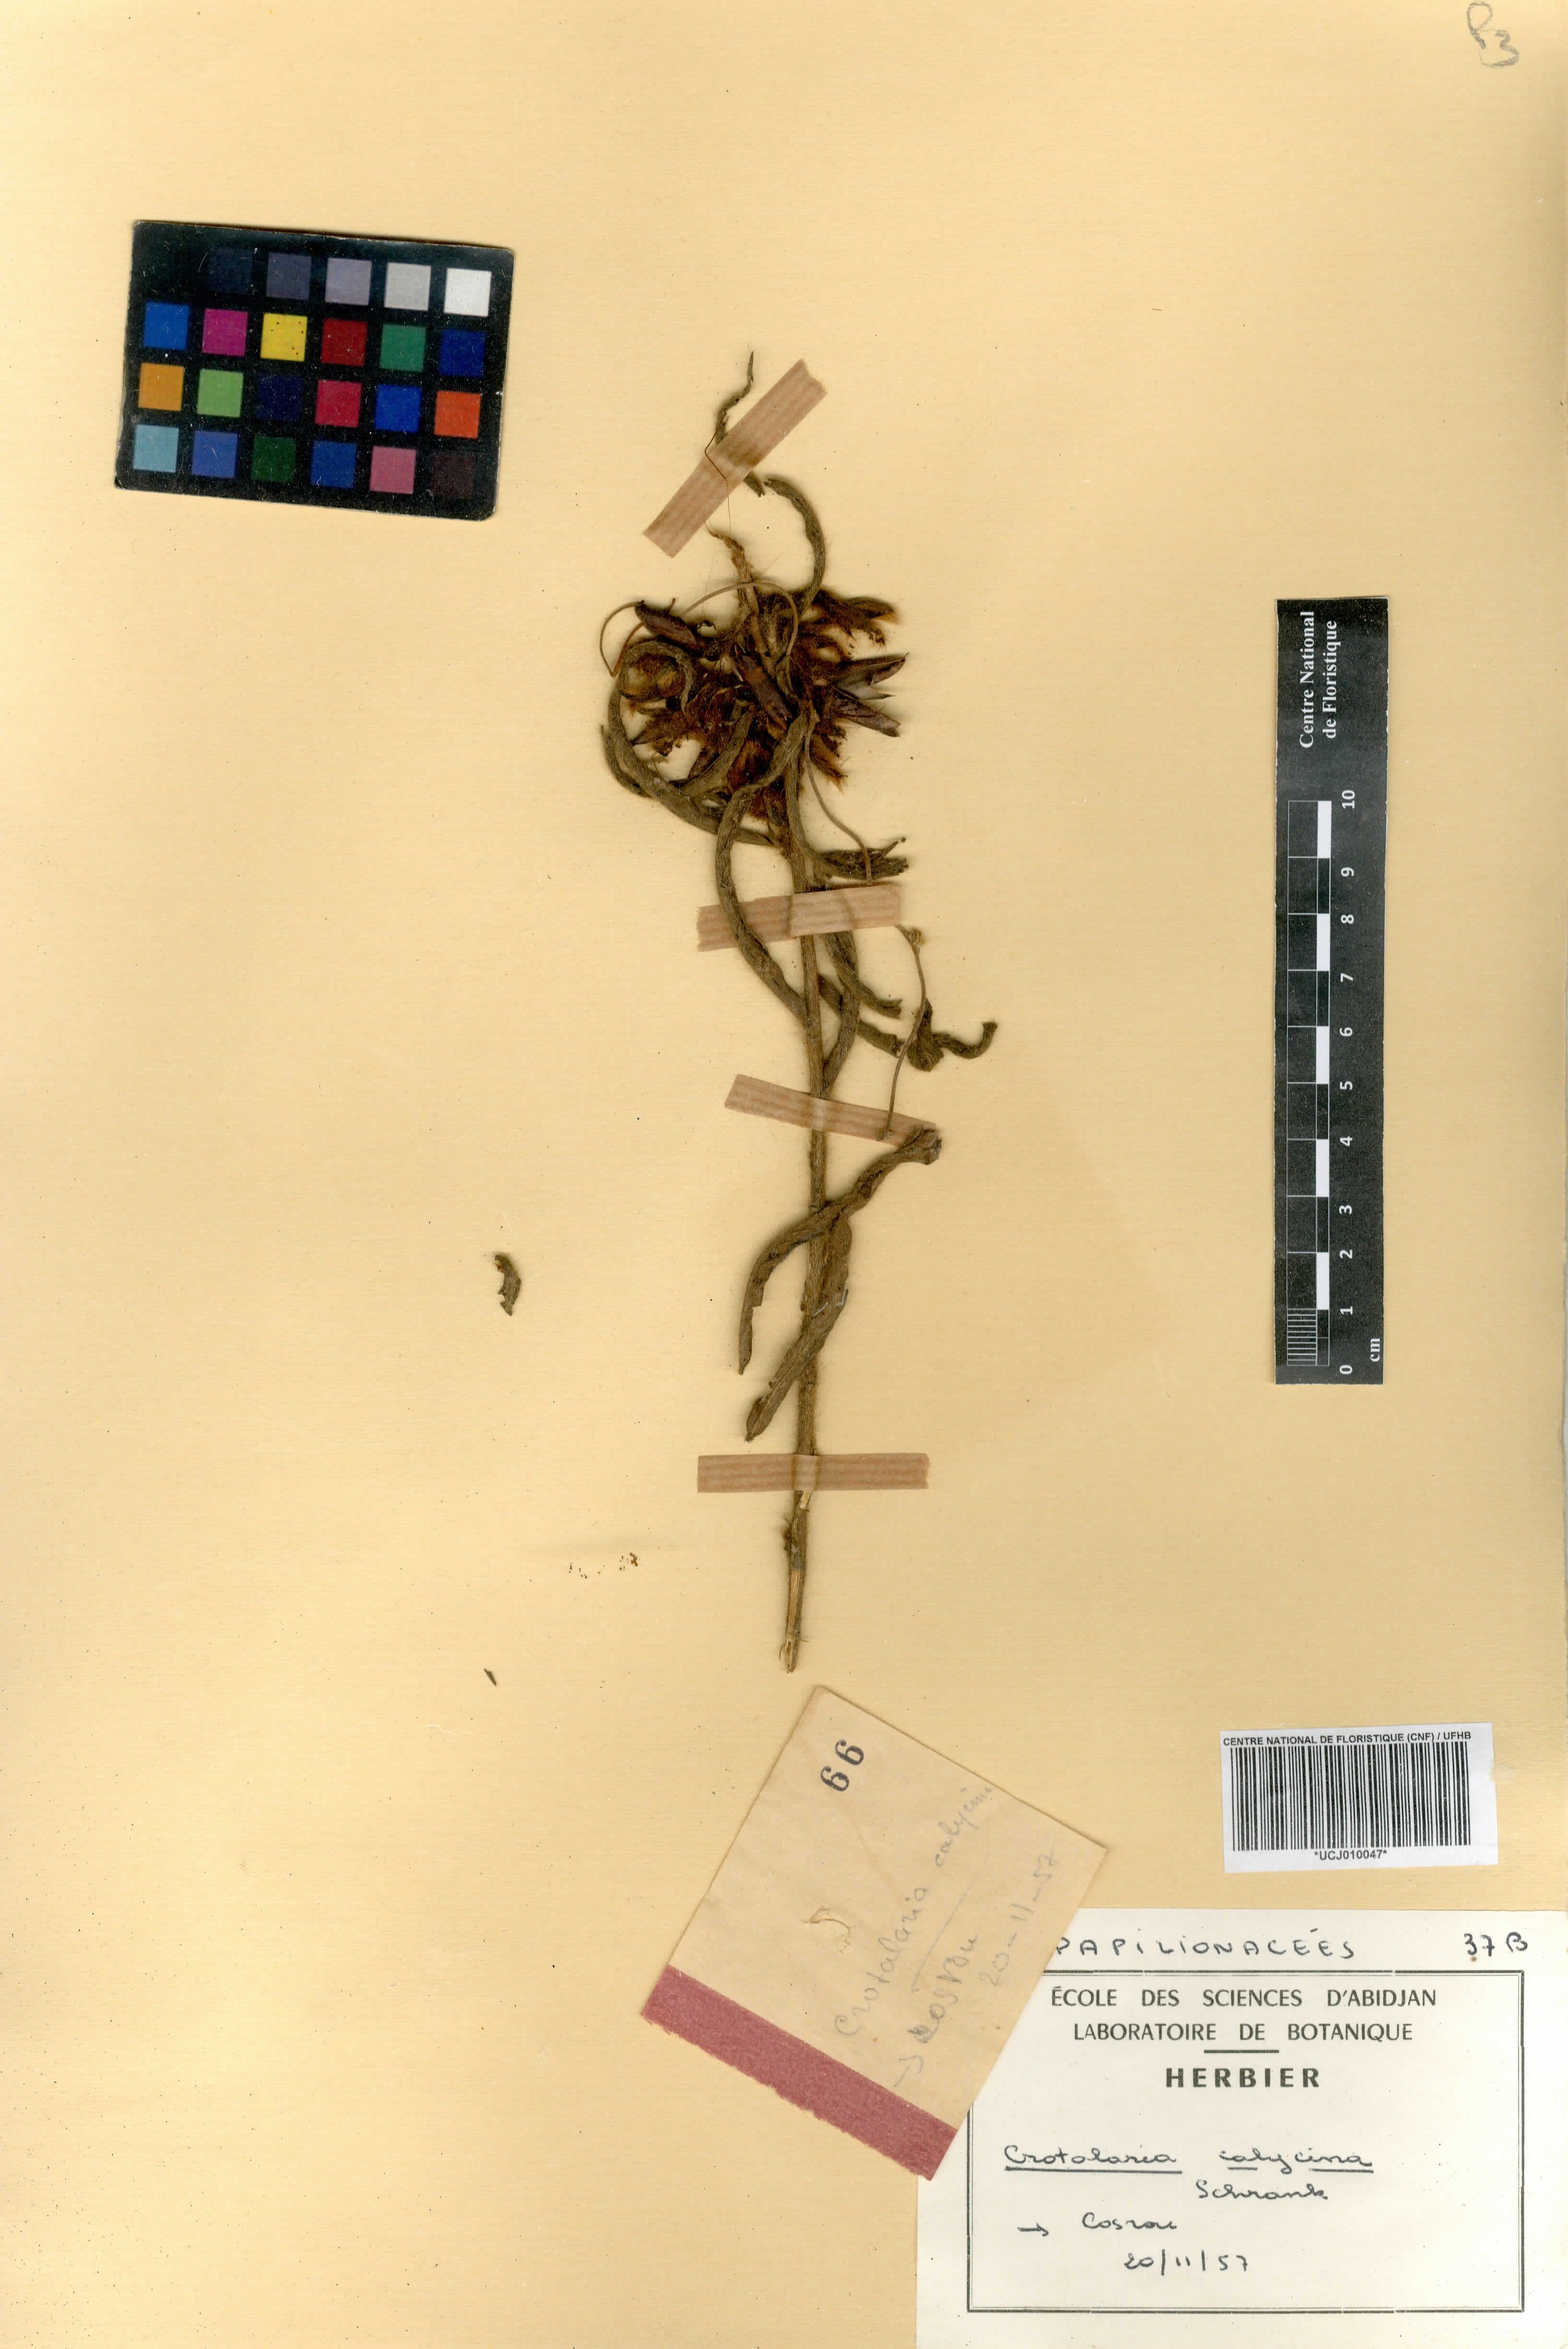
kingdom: Plantae
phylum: Tracheophyta
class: Magnoliopsida
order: Fabales
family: Fabaceae
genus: Crotalaria
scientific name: Crotalaria calycina
